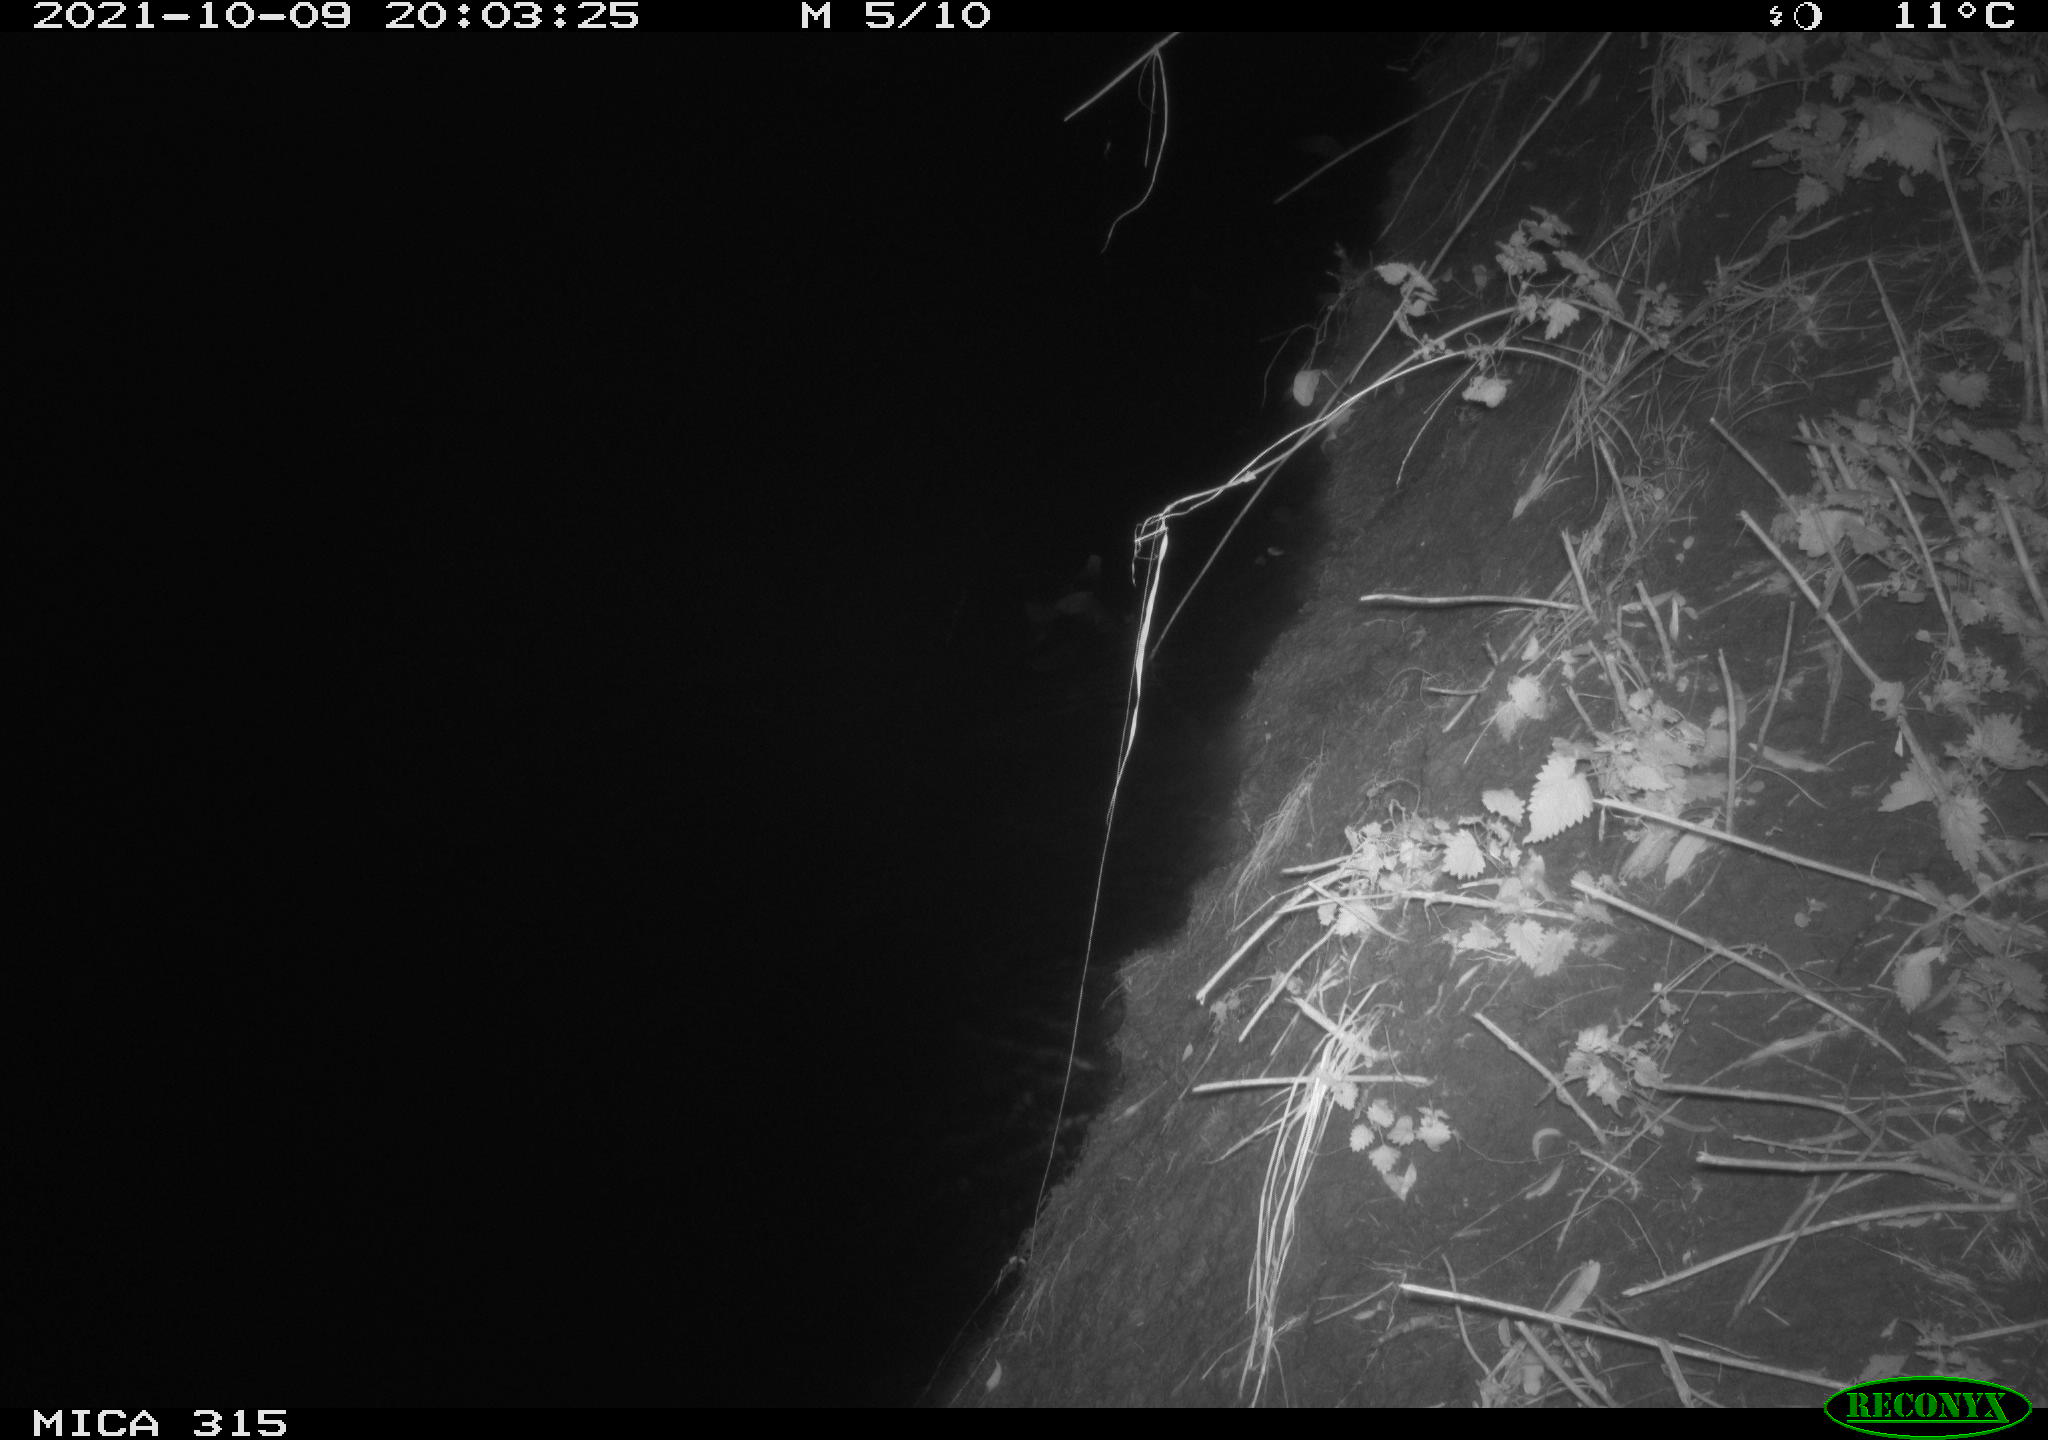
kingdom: Animalia
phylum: Chordata
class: Mammalia
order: Rodentia
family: Muridae
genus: Rattus
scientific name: Rattus norvegicus
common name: Brown rat
